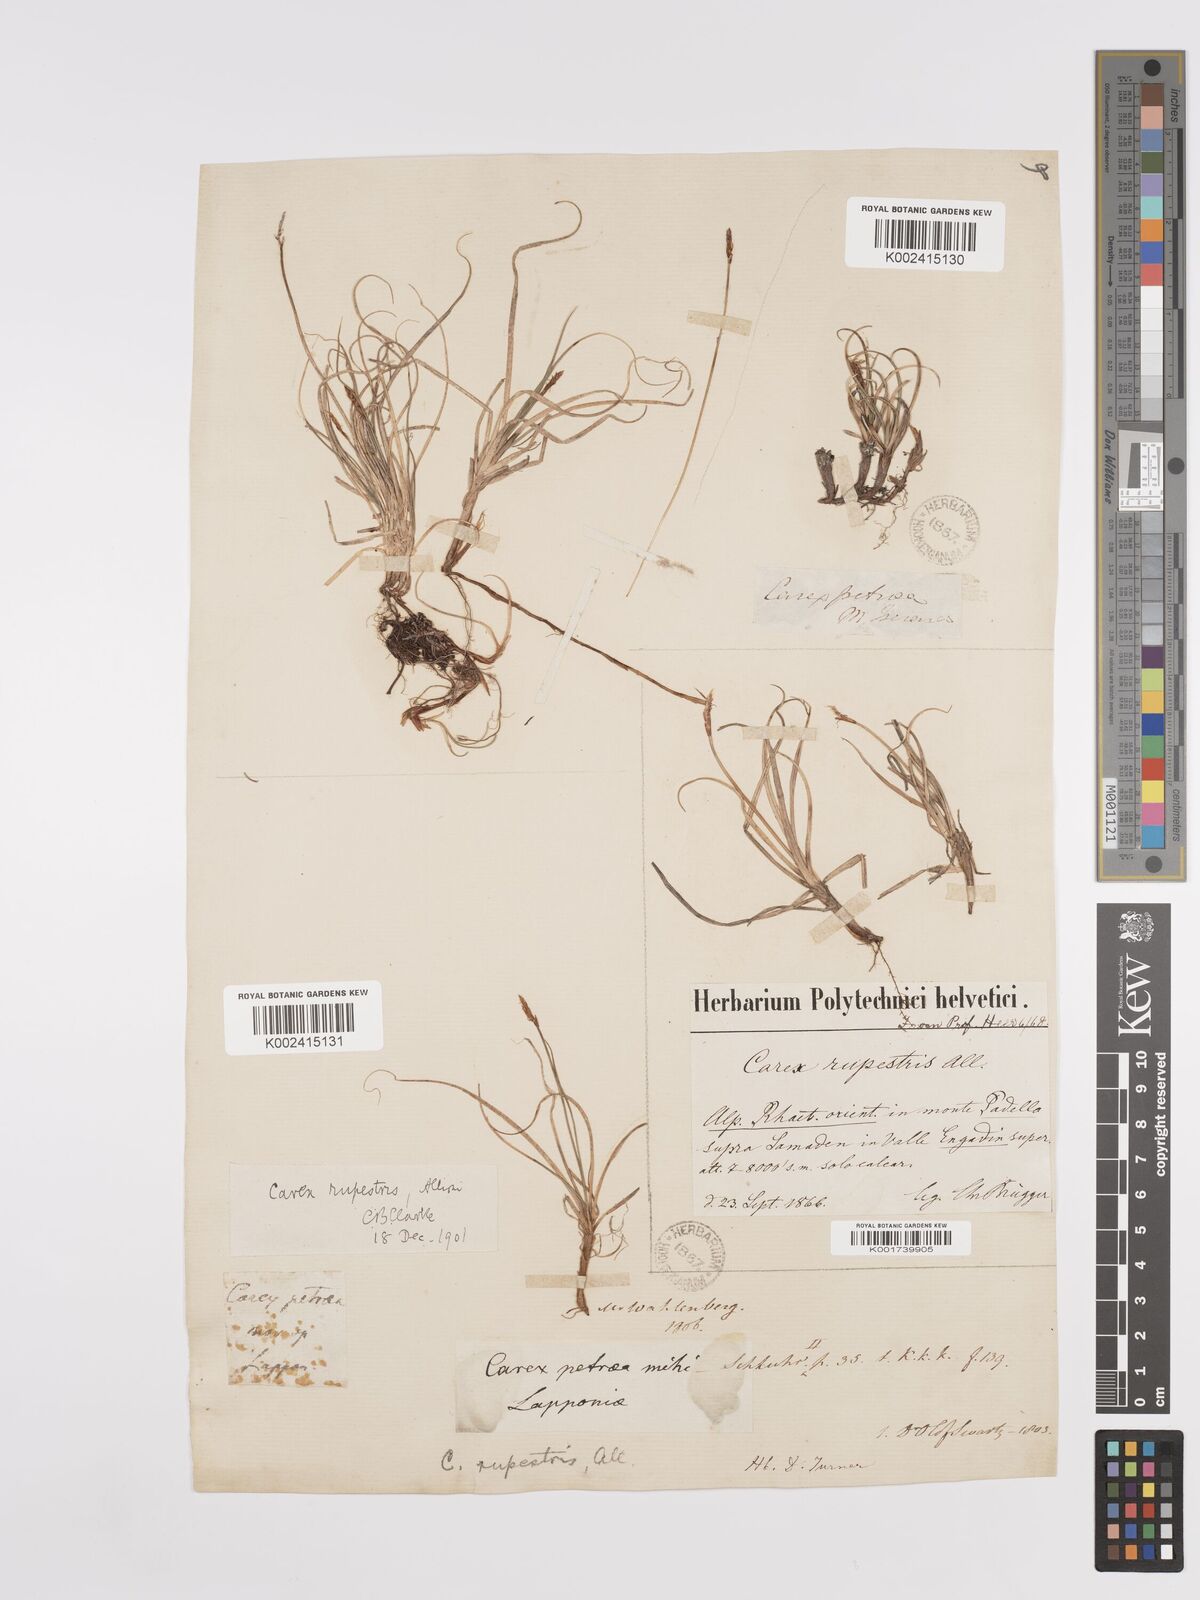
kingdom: Plantae
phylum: Tracheophyta
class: Liliopsida
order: Poales
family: Cyperaceae
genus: Carex
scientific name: Carex rupestris
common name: Rock sedge
